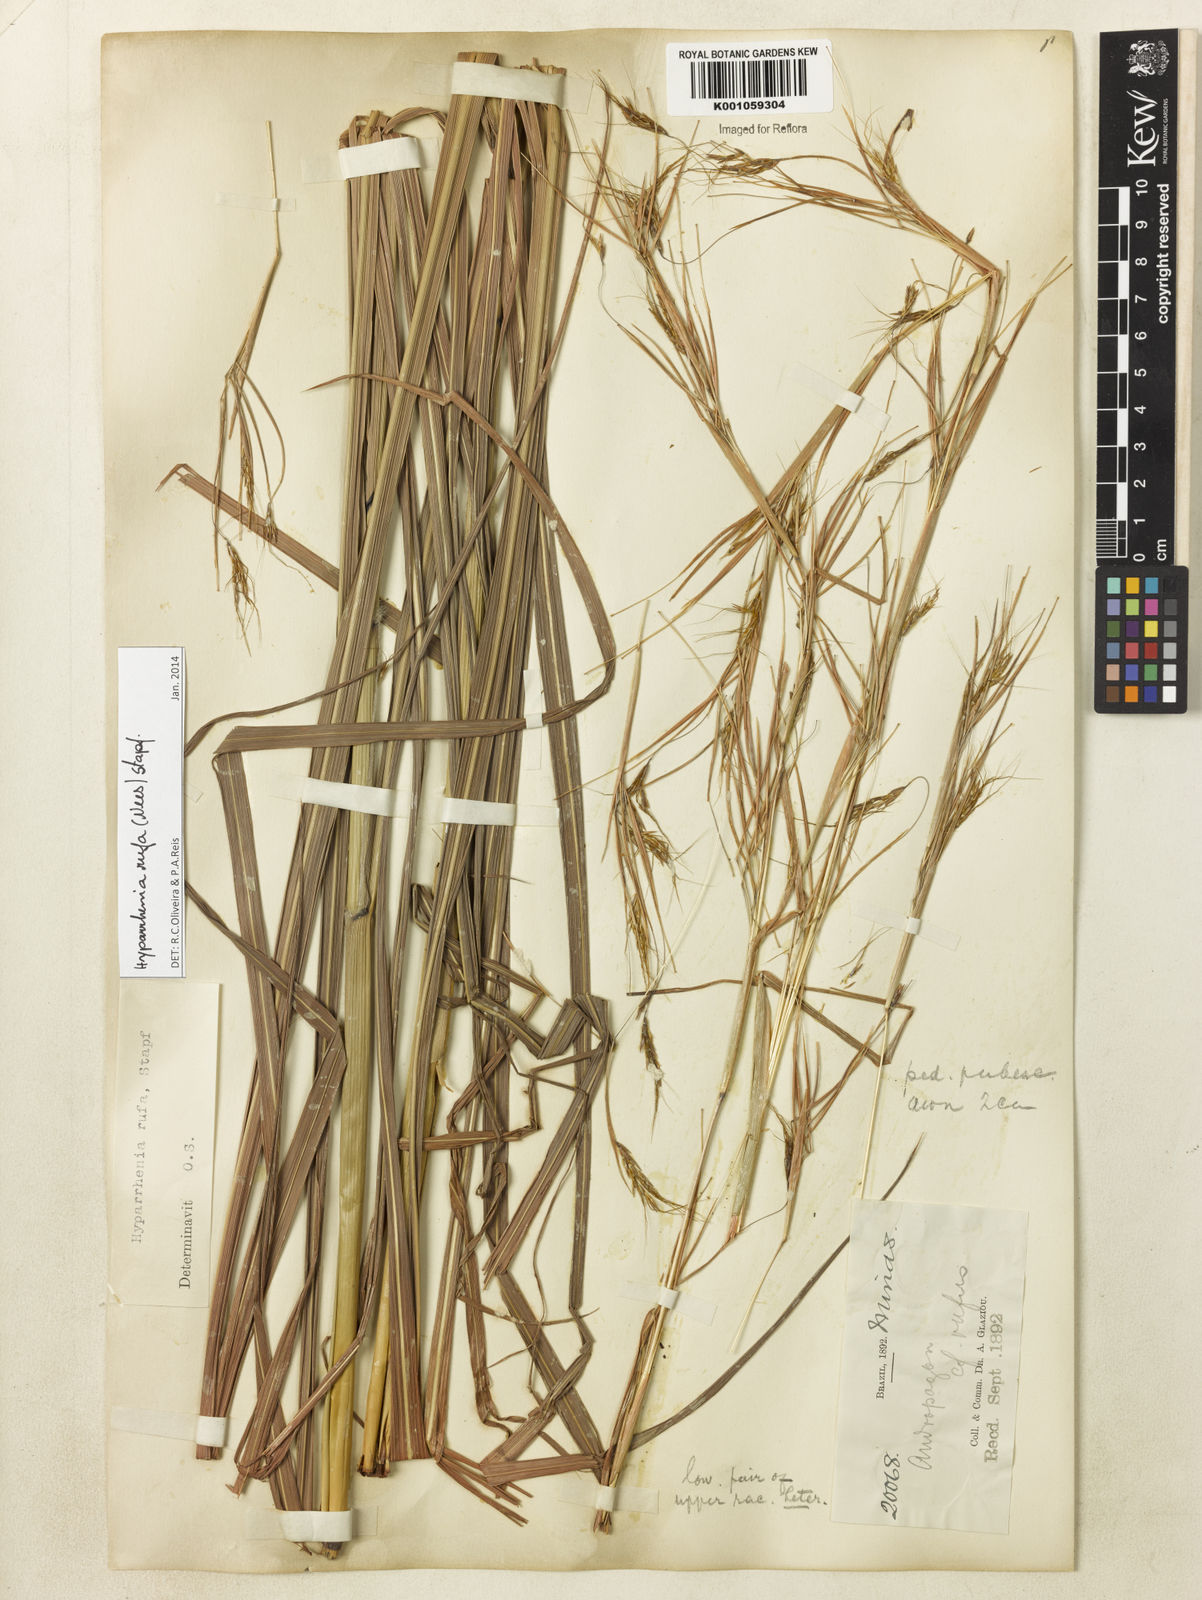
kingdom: Plantae
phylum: Tracheophyta
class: Liliopsida
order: Poales
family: Poaceae
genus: Hyparrhenia
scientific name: Hyparrhenia rufa
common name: Jaraguagrass
